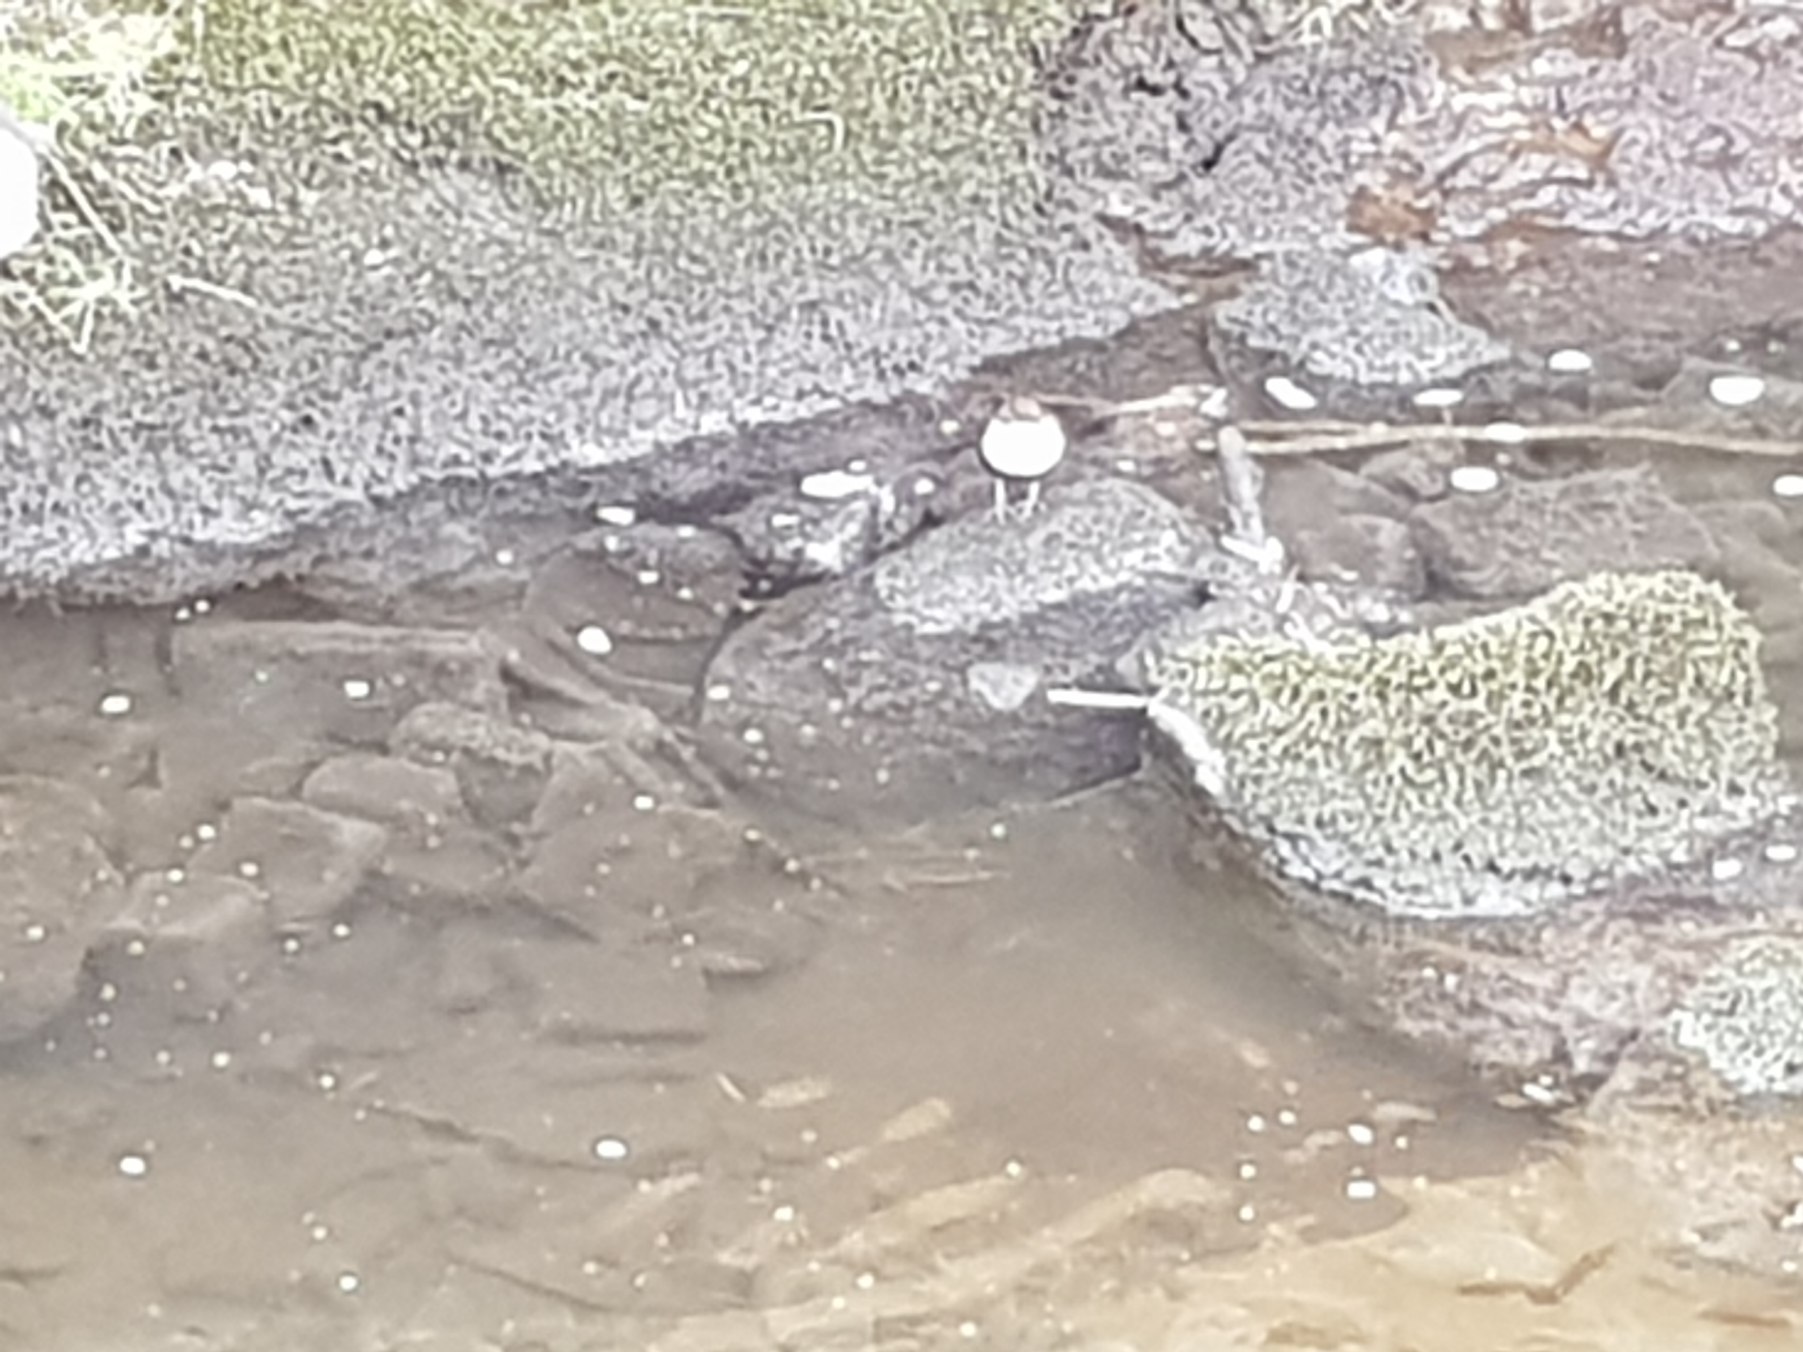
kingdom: Animalia
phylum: Chordata
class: Aves
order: Passeriformes
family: Cinclidae
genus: Cinclus
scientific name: Cinclus cinclus
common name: Vandstær
